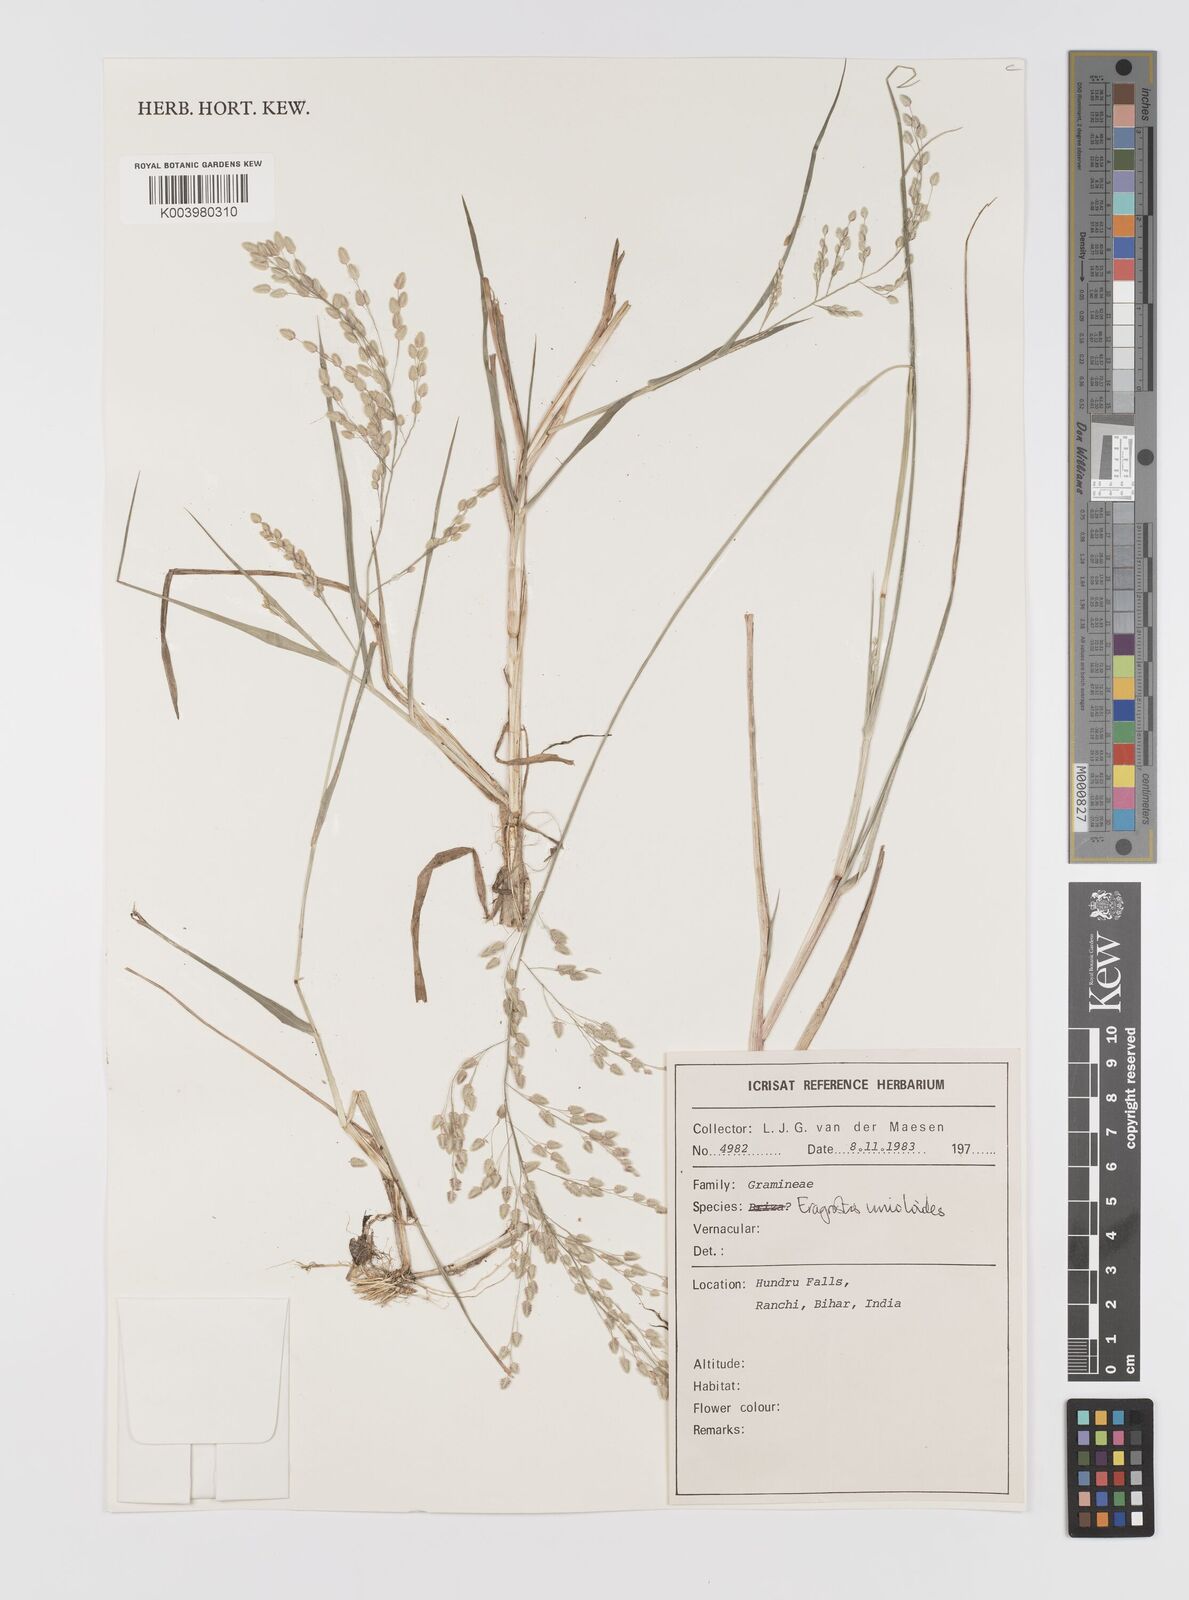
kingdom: Plantae
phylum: Tracheophyta
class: Liliopsida
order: Poales
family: Poaceae
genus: Eragrostis
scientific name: Eragrostis unioloides
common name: Chinese lovegrass
